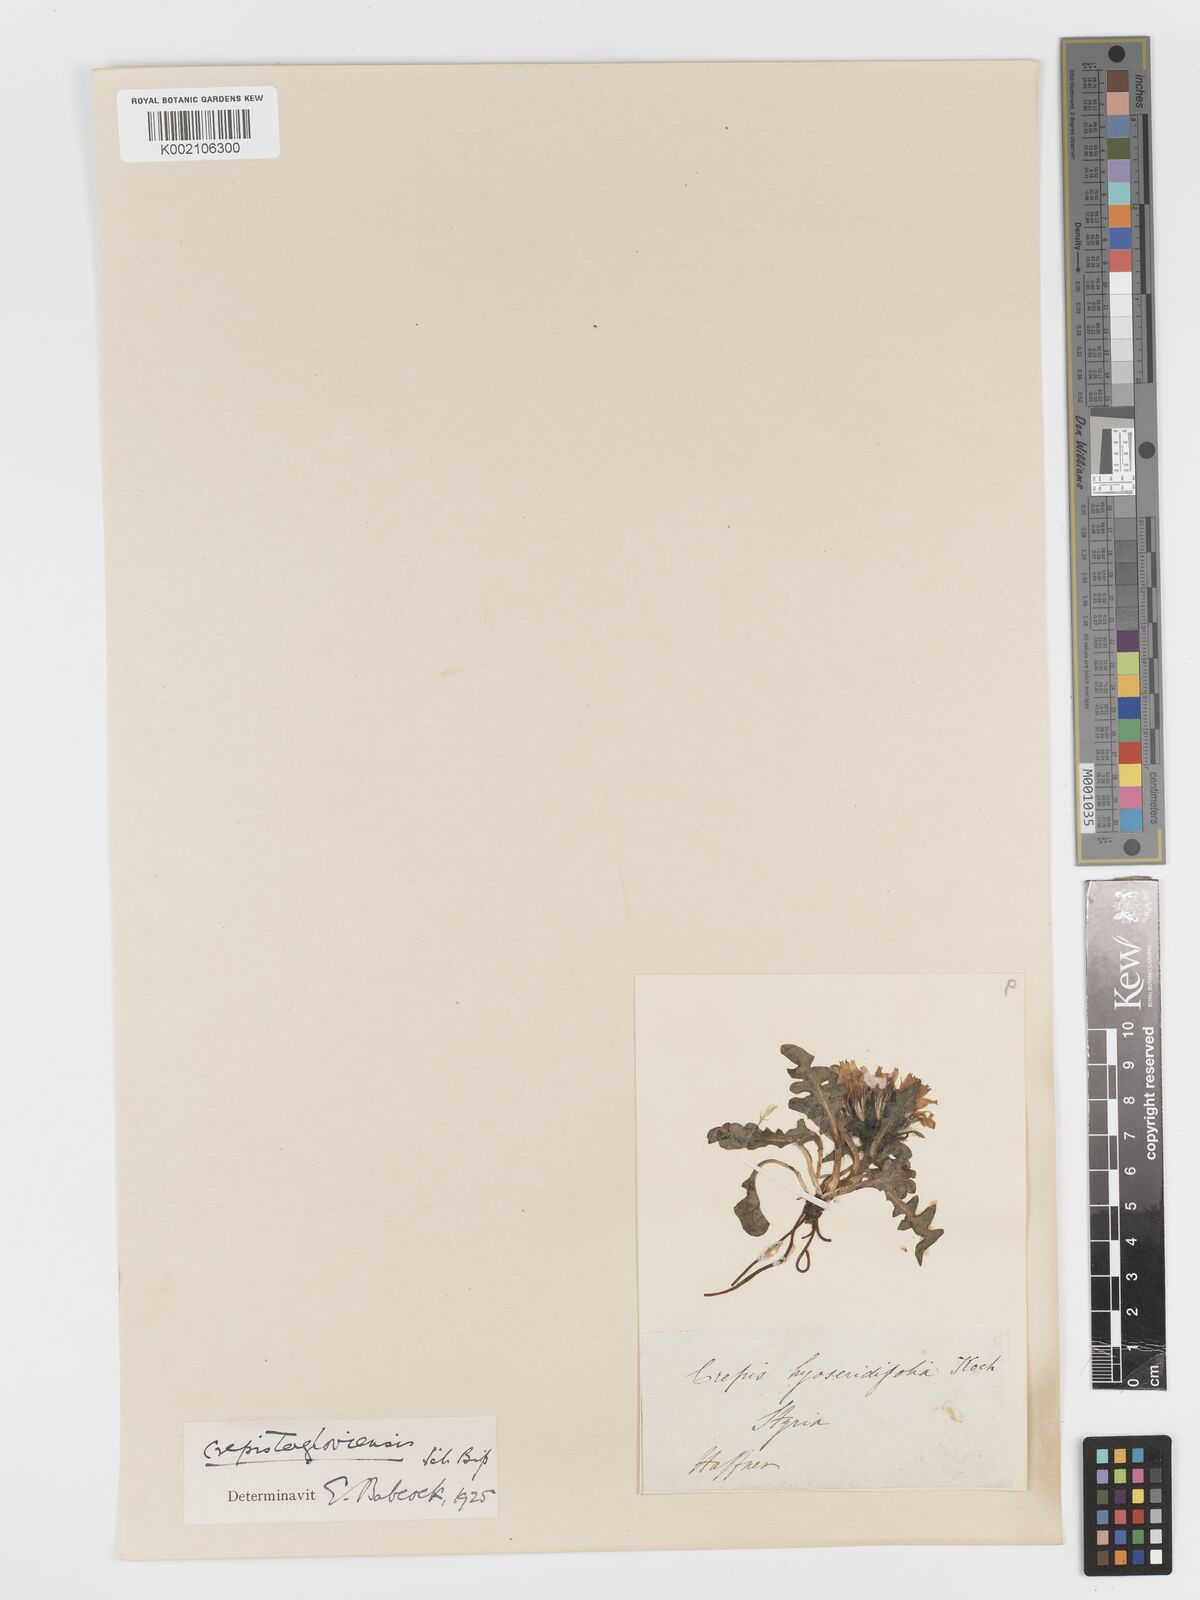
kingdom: Plantae
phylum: Tracheophyta
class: Magnoliopsida
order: Asterales
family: Asteraceae
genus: Crepis
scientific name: Crepis terglouensis
